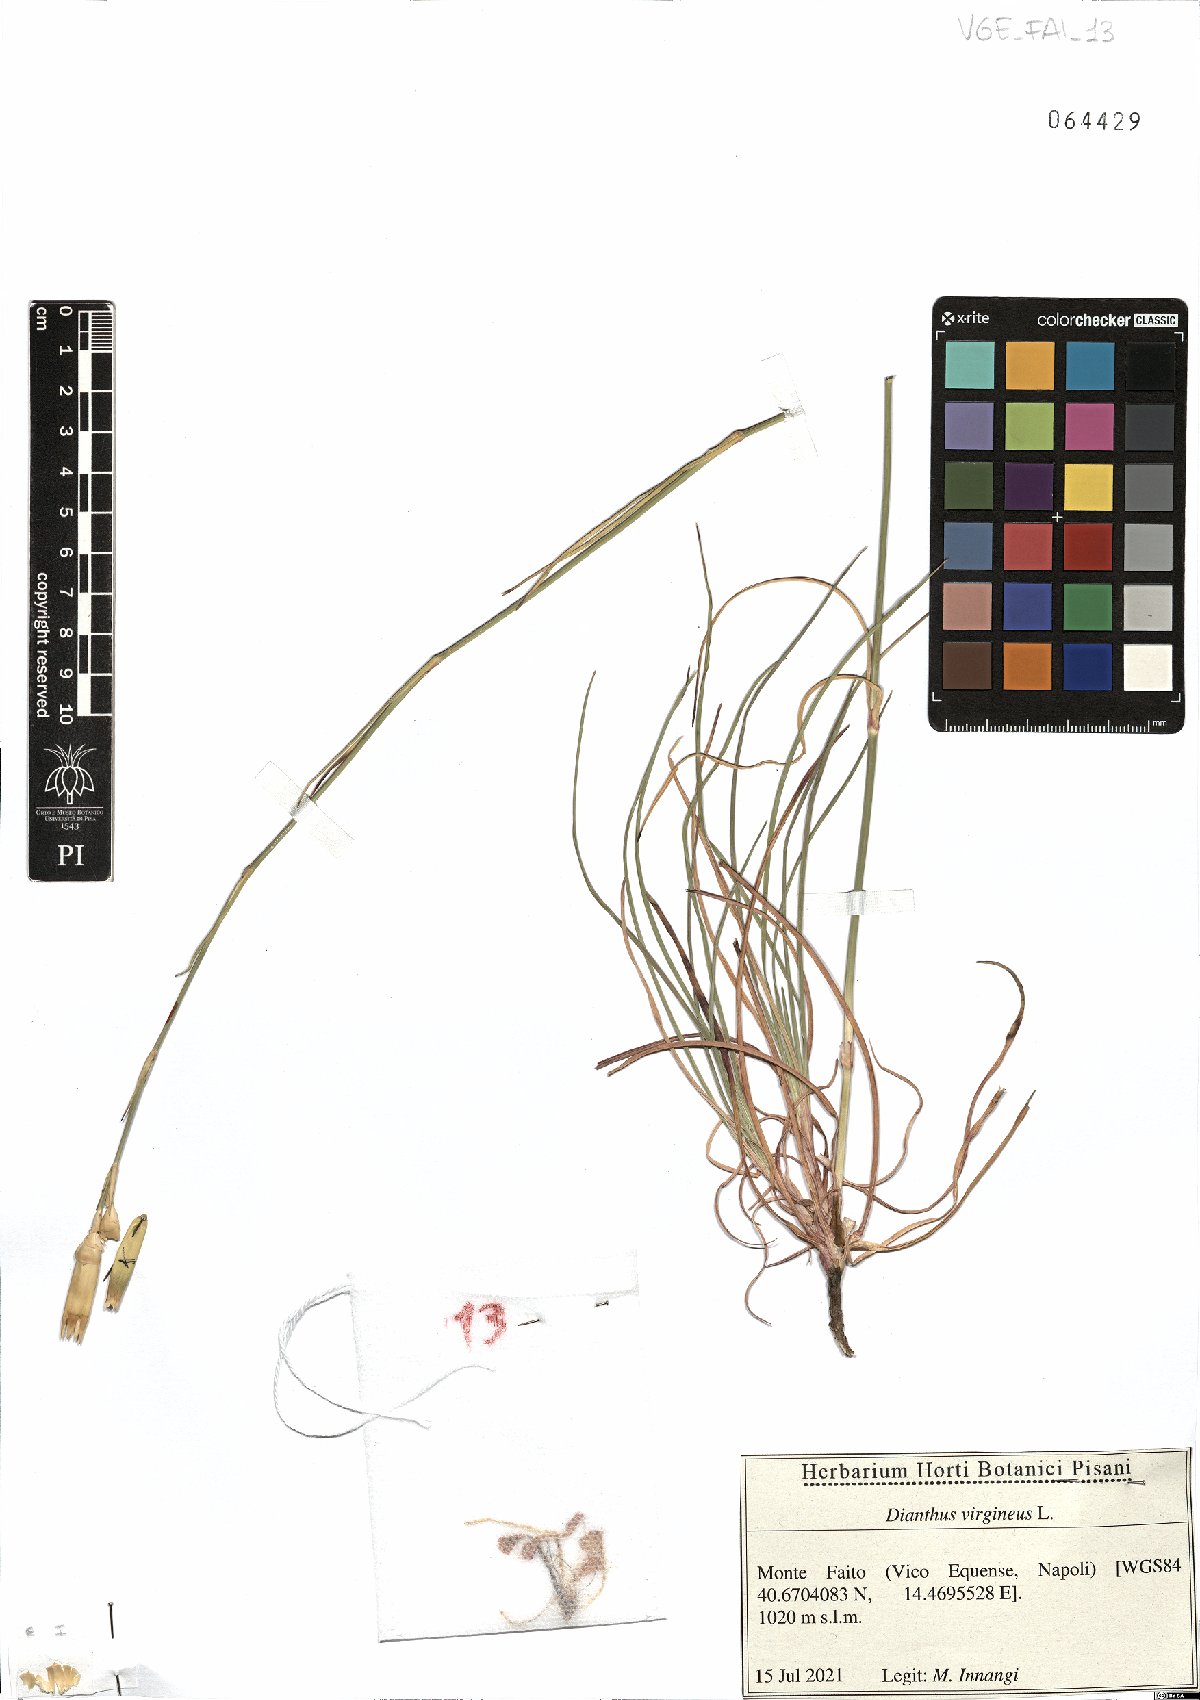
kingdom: Plantae
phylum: Tracheophyta
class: Magnoliopsida
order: Caryophyllales
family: Caryophyllaceae
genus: Dianthus
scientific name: Dianthus virgineus
